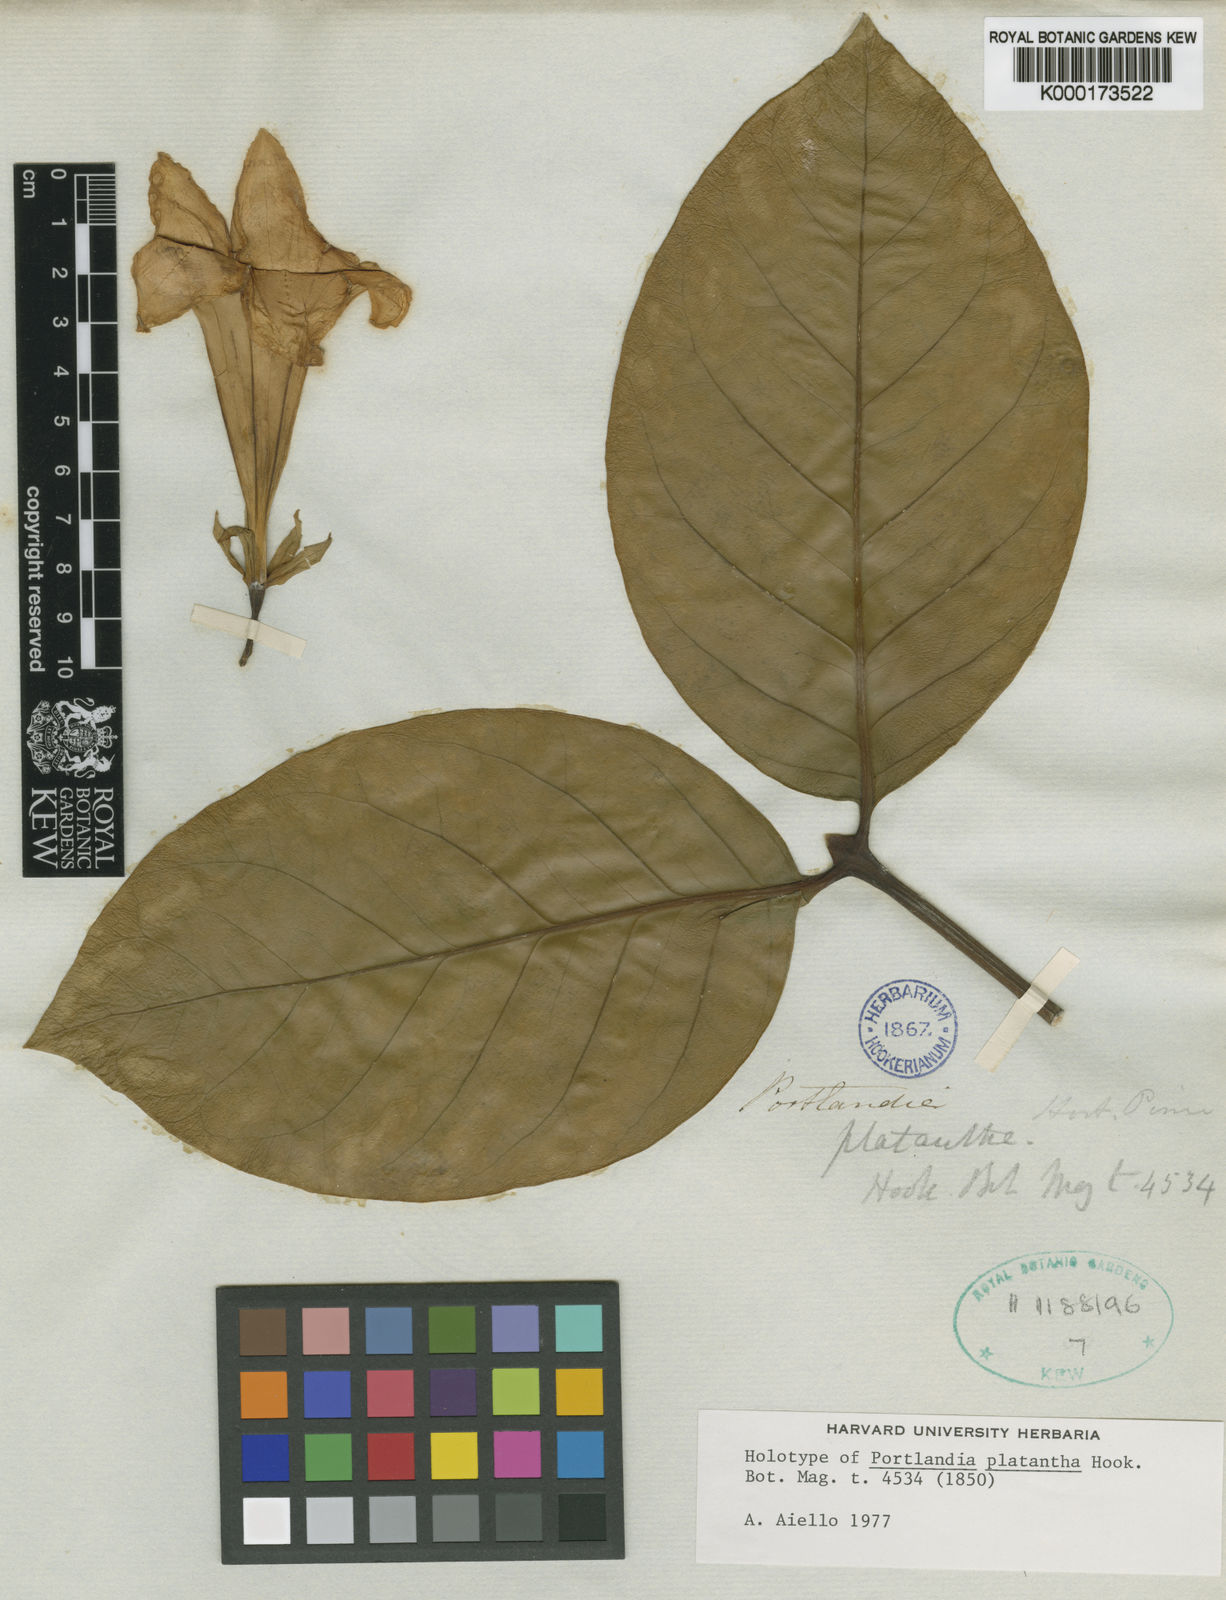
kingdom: Plantae
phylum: Tracheophyta
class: Magnoliopsida
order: Gentianales
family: Rubiaceae
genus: Portlandia
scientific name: Portlandia platantha
